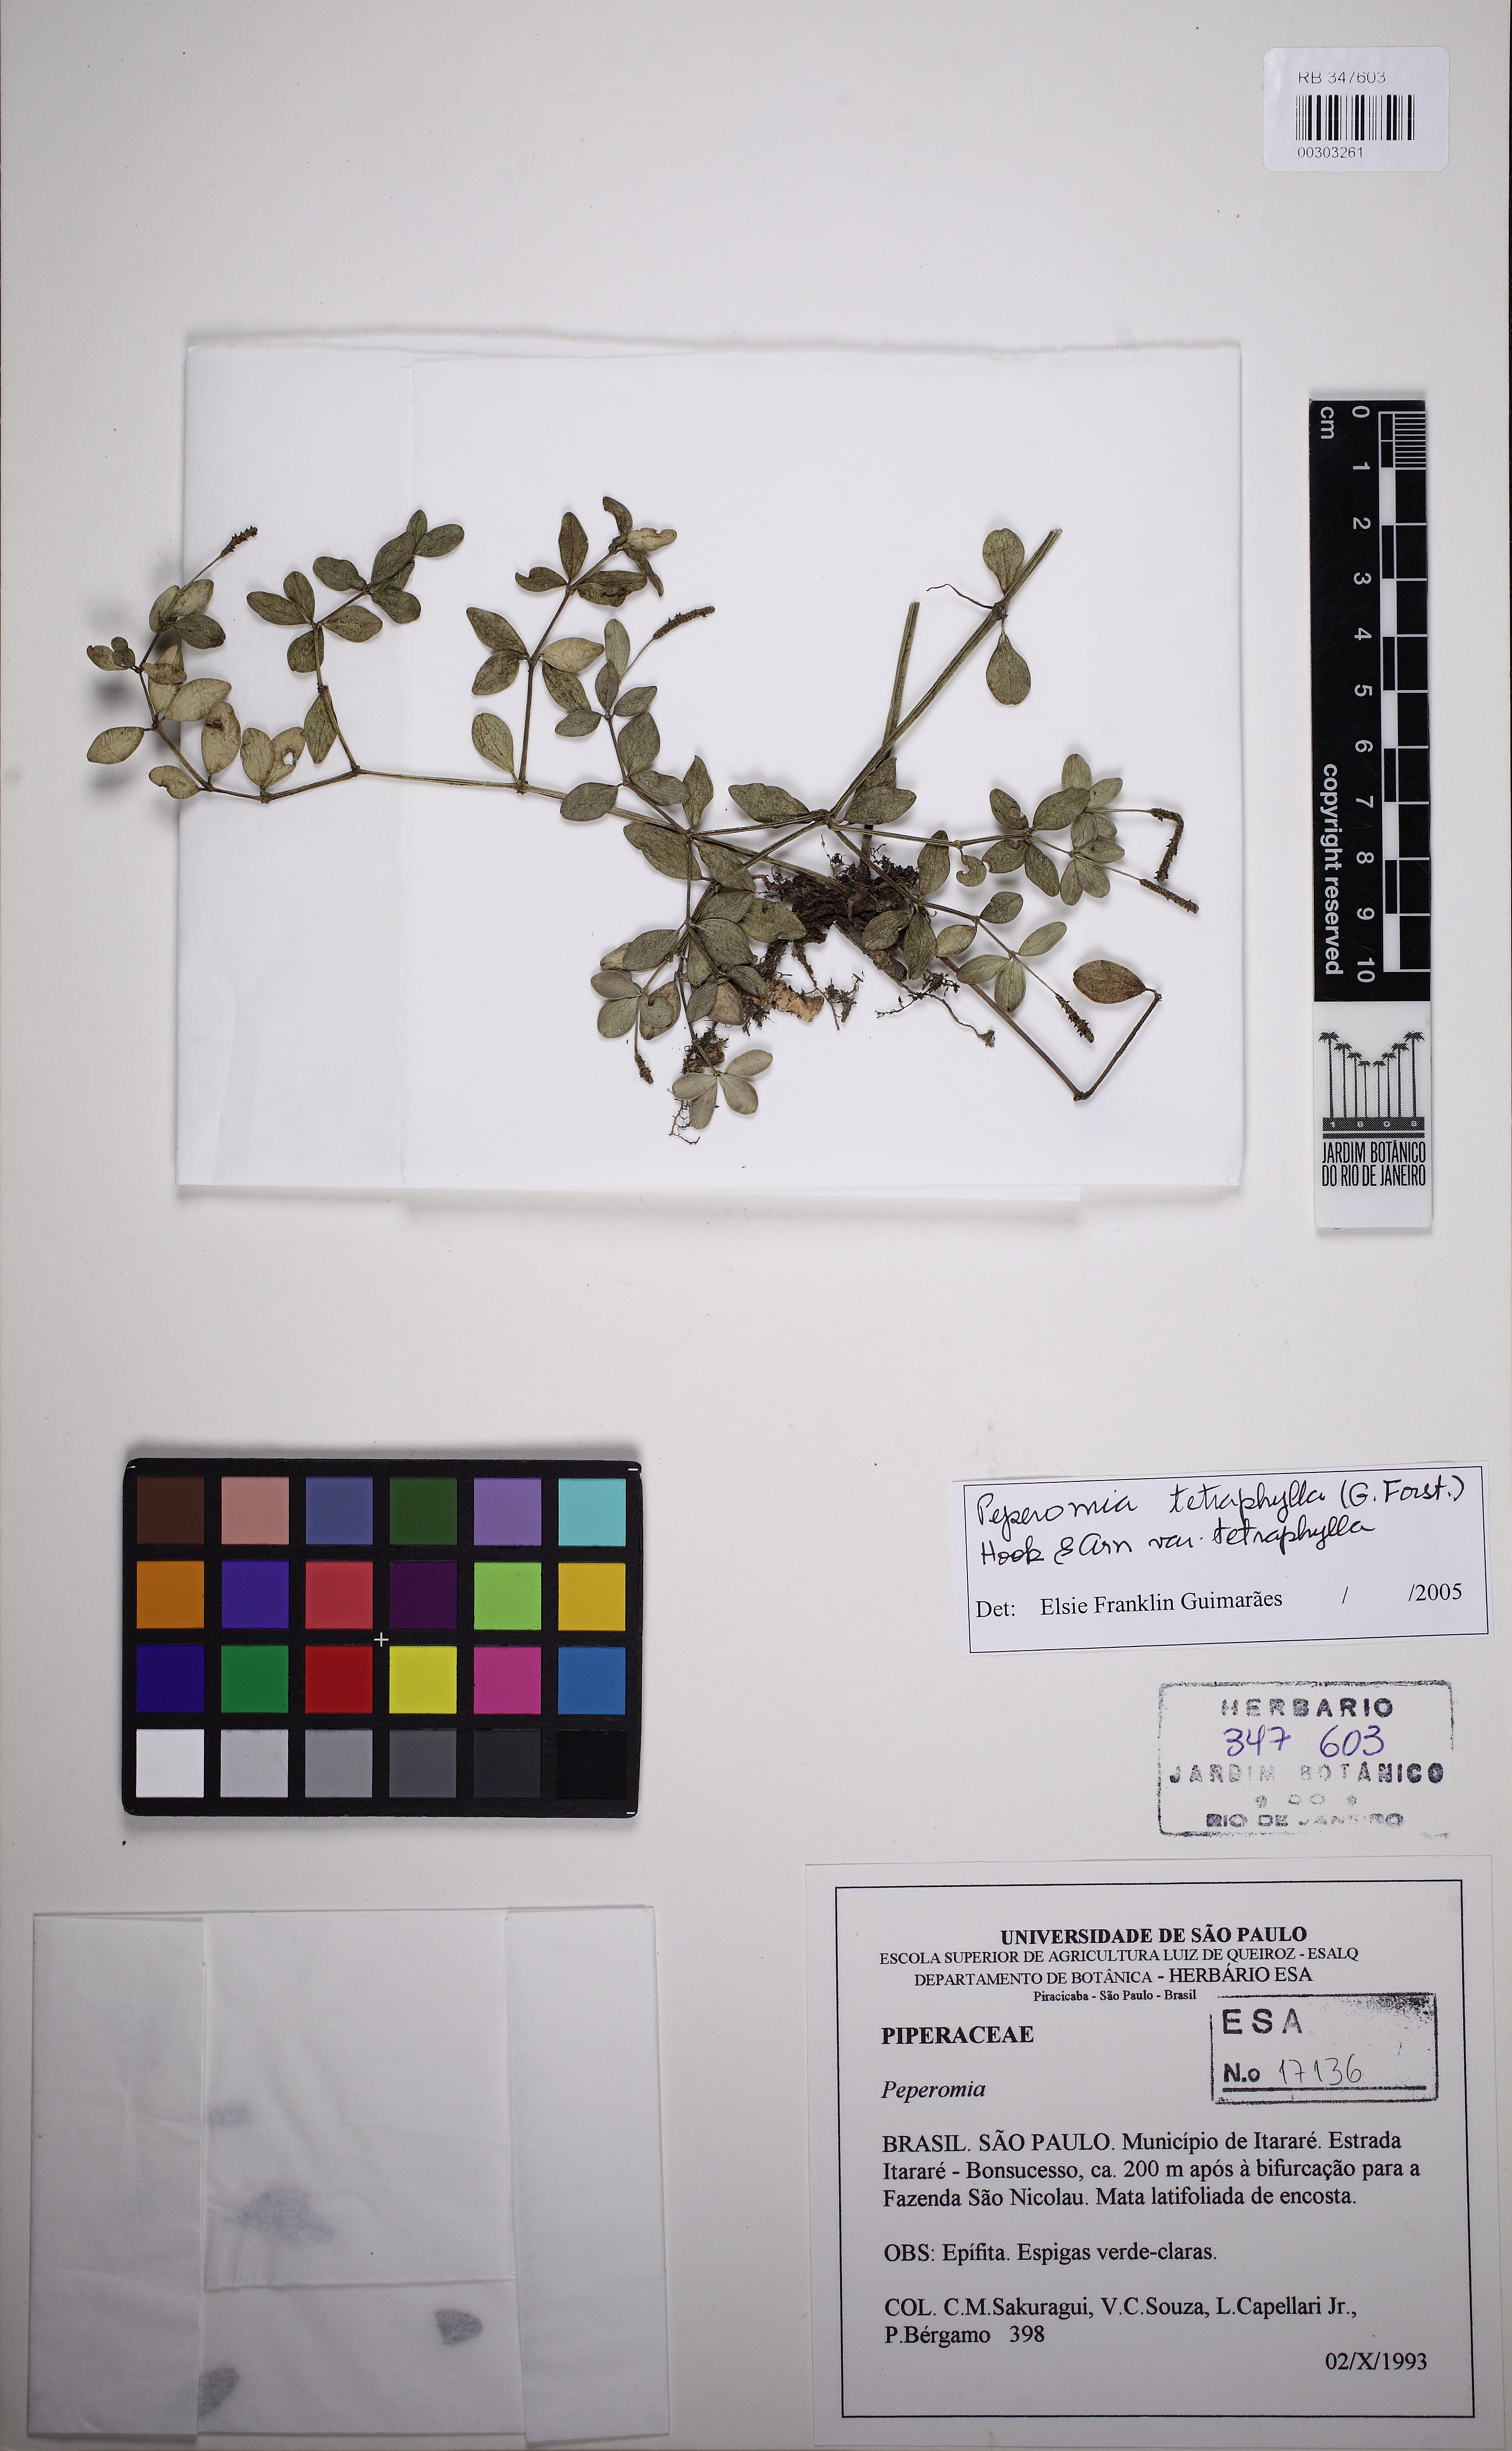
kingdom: Plantae
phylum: Tracheophyta
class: Magnoliopsida
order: Piperales
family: Piperaceae
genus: Peperomia
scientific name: Peperomia tetraphylla
